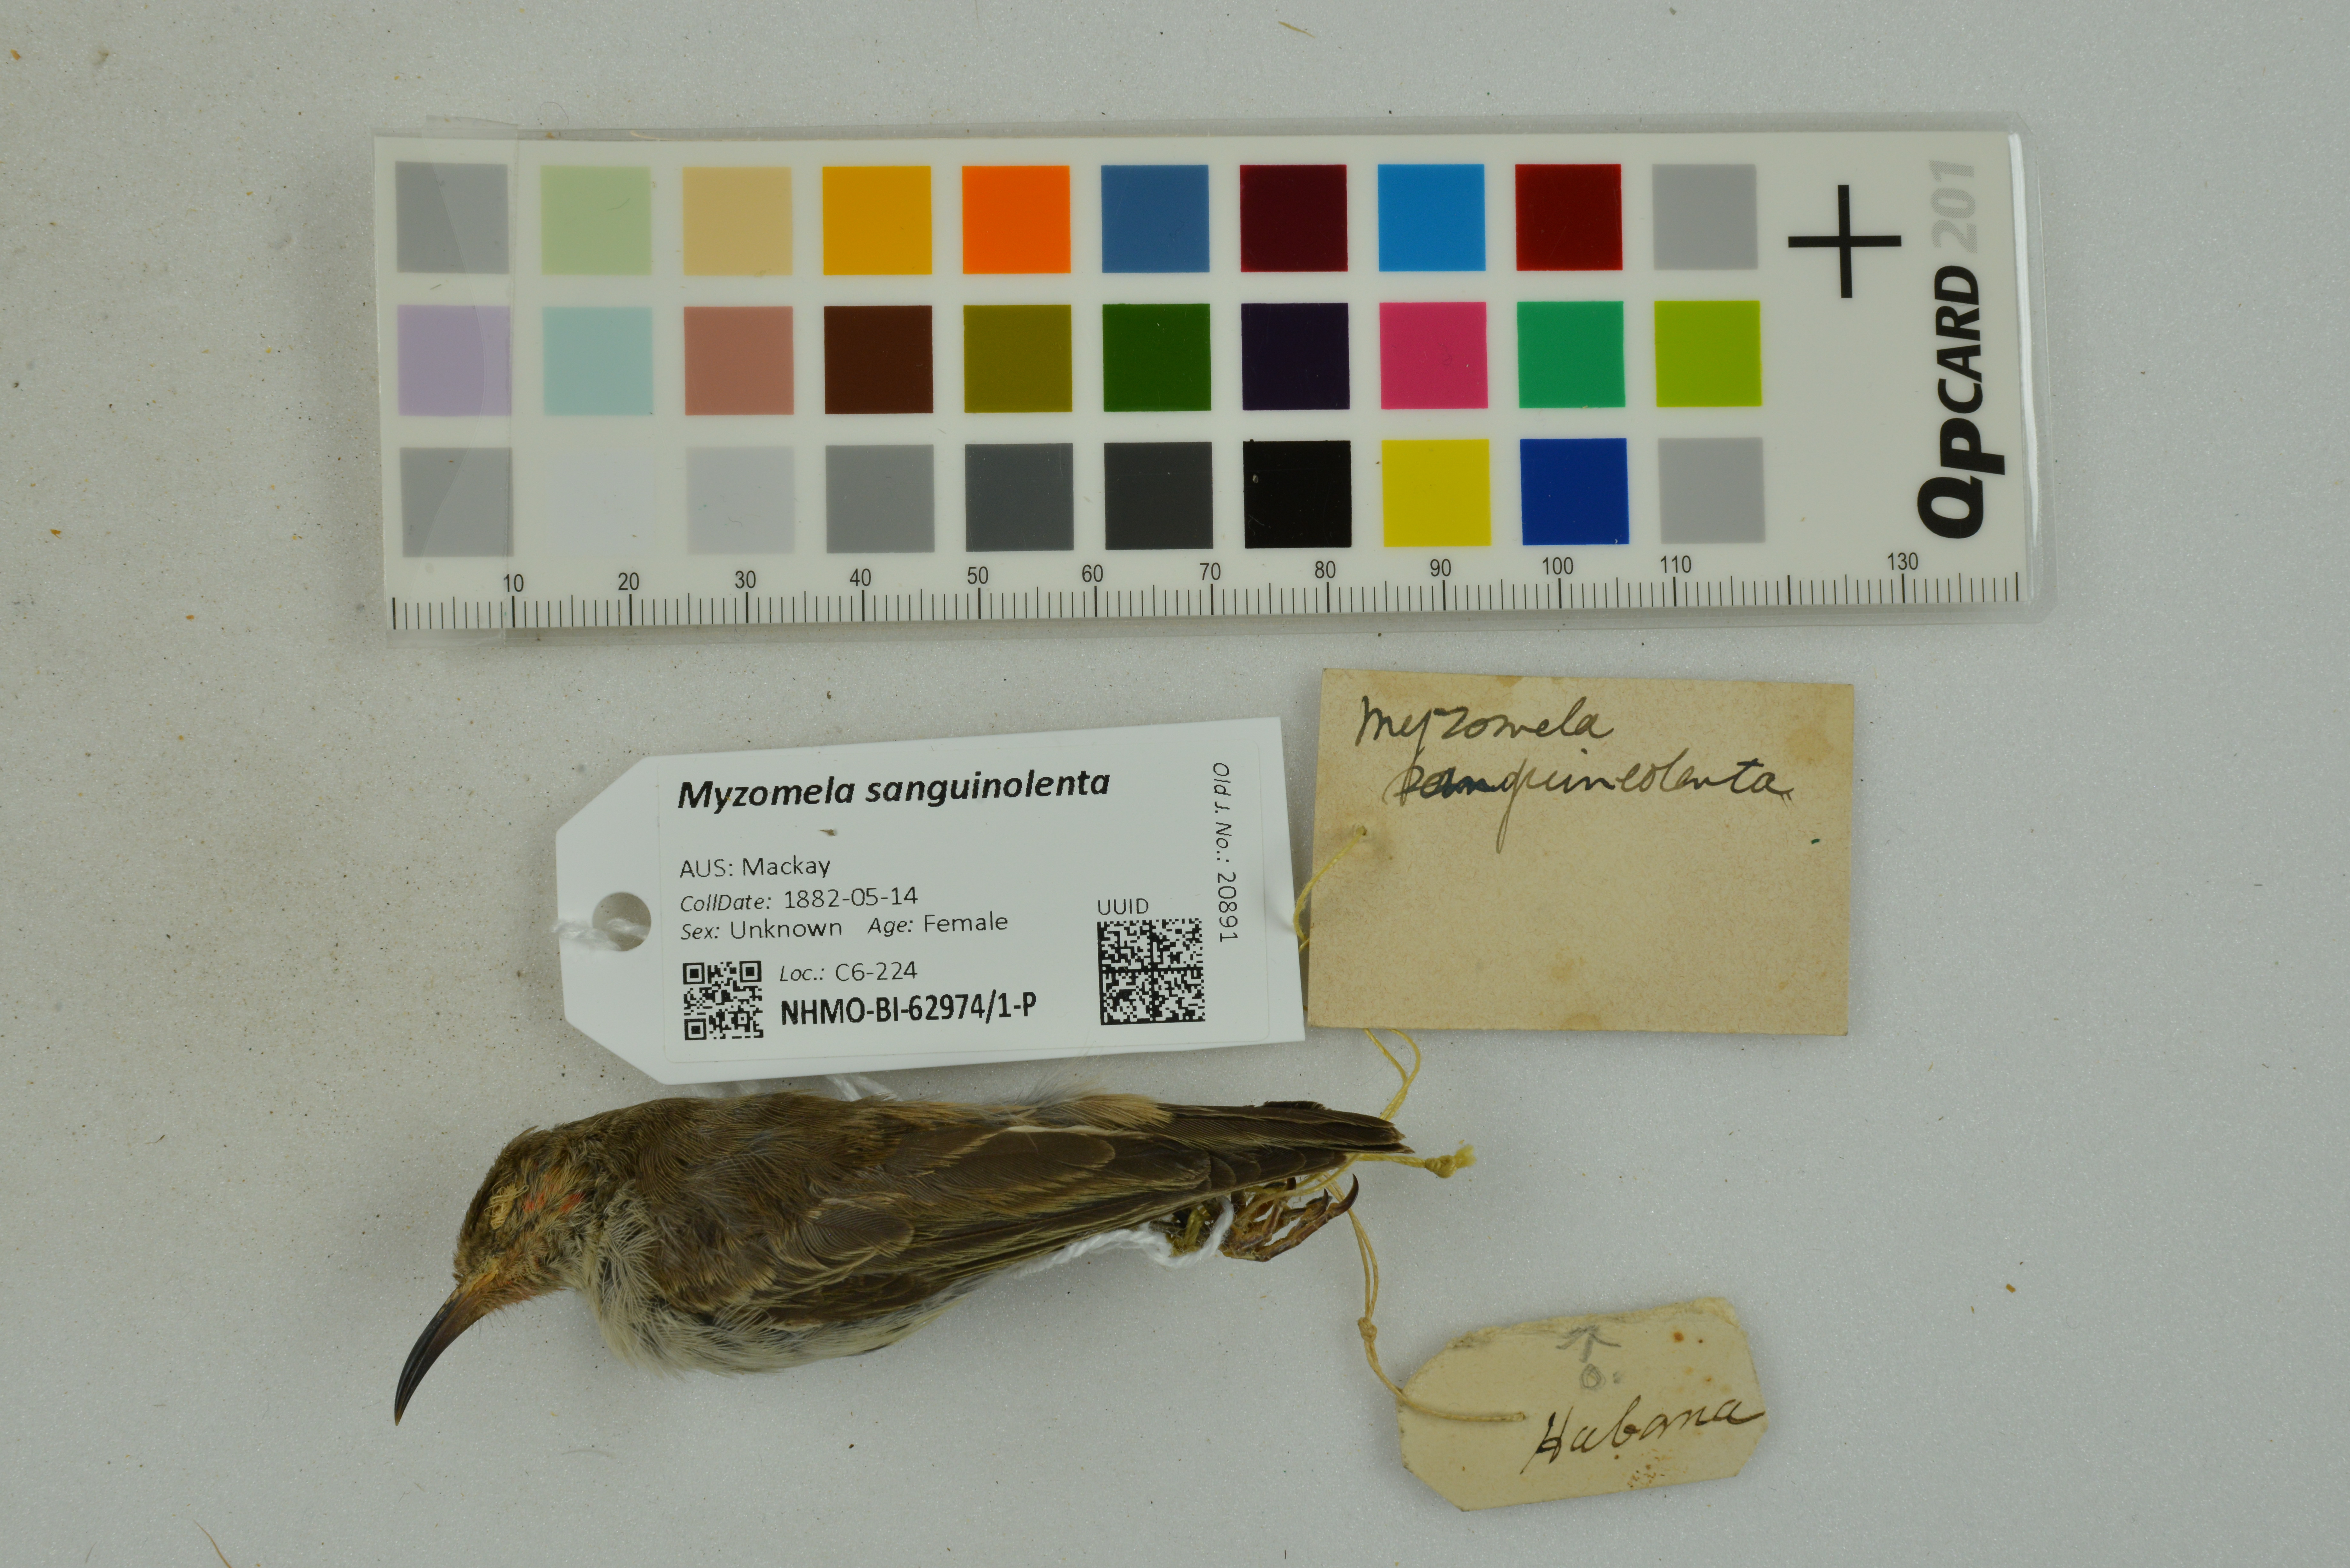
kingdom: Animalia
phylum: Chordata
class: Aves
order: Passeriformes
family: Meliphagidae
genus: Myzomela
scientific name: Myzomela sanguinolenta
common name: Scarlet myzomela
